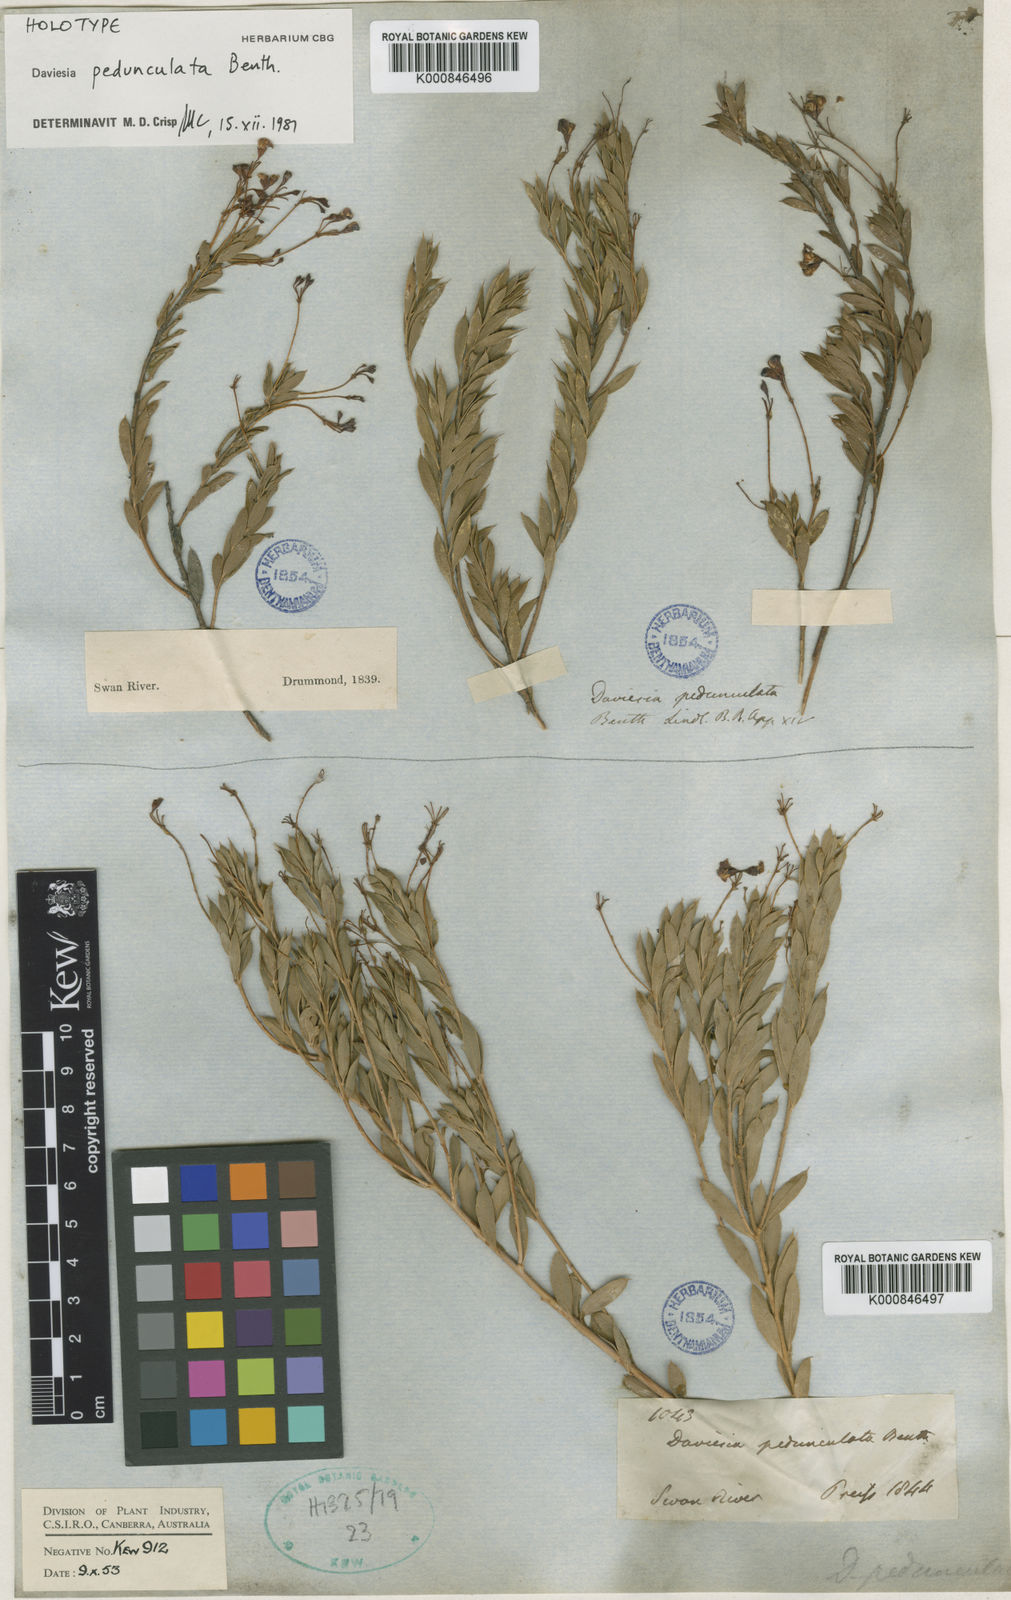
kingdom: Plantae
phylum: Tracheophyta
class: Magnoliopsida
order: Fabales
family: Fabaceae
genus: Daviesia
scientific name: Daviesia pedunculata
